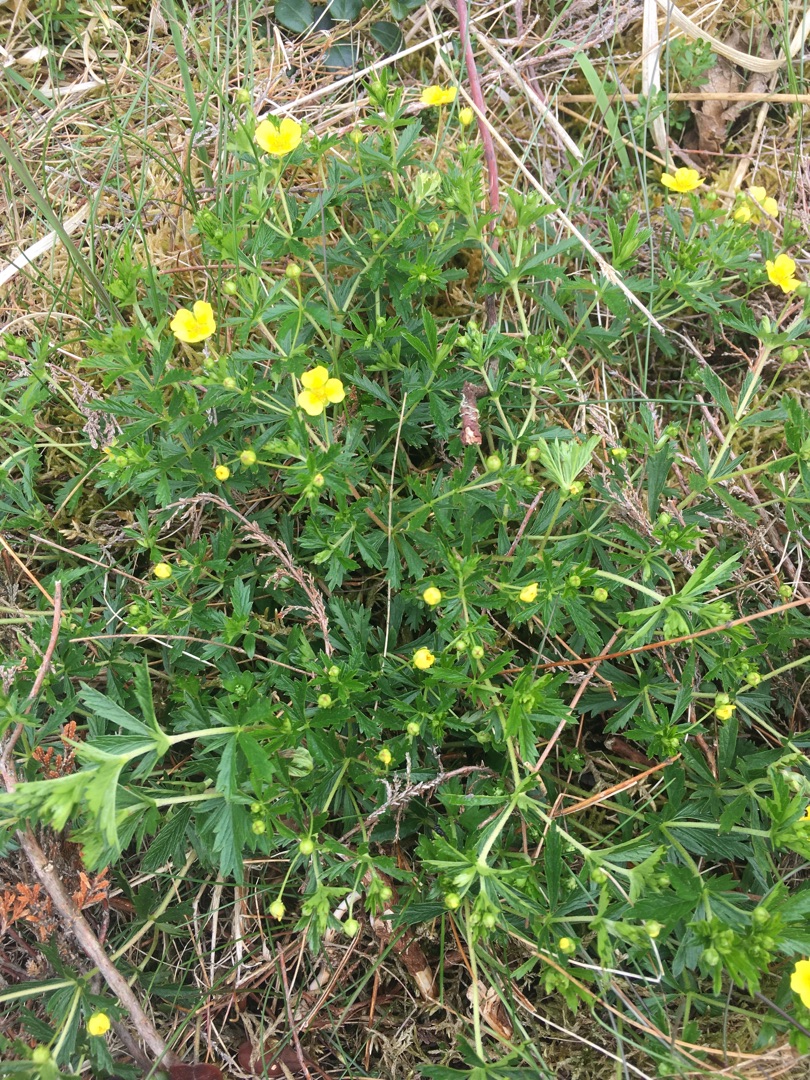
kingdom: Plantae
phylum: Tracheophyta
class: Magnoliopsida
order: Rosales
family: Rosaceae
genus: Potentilla
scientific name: Potentilla erecta
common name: Tormentil
